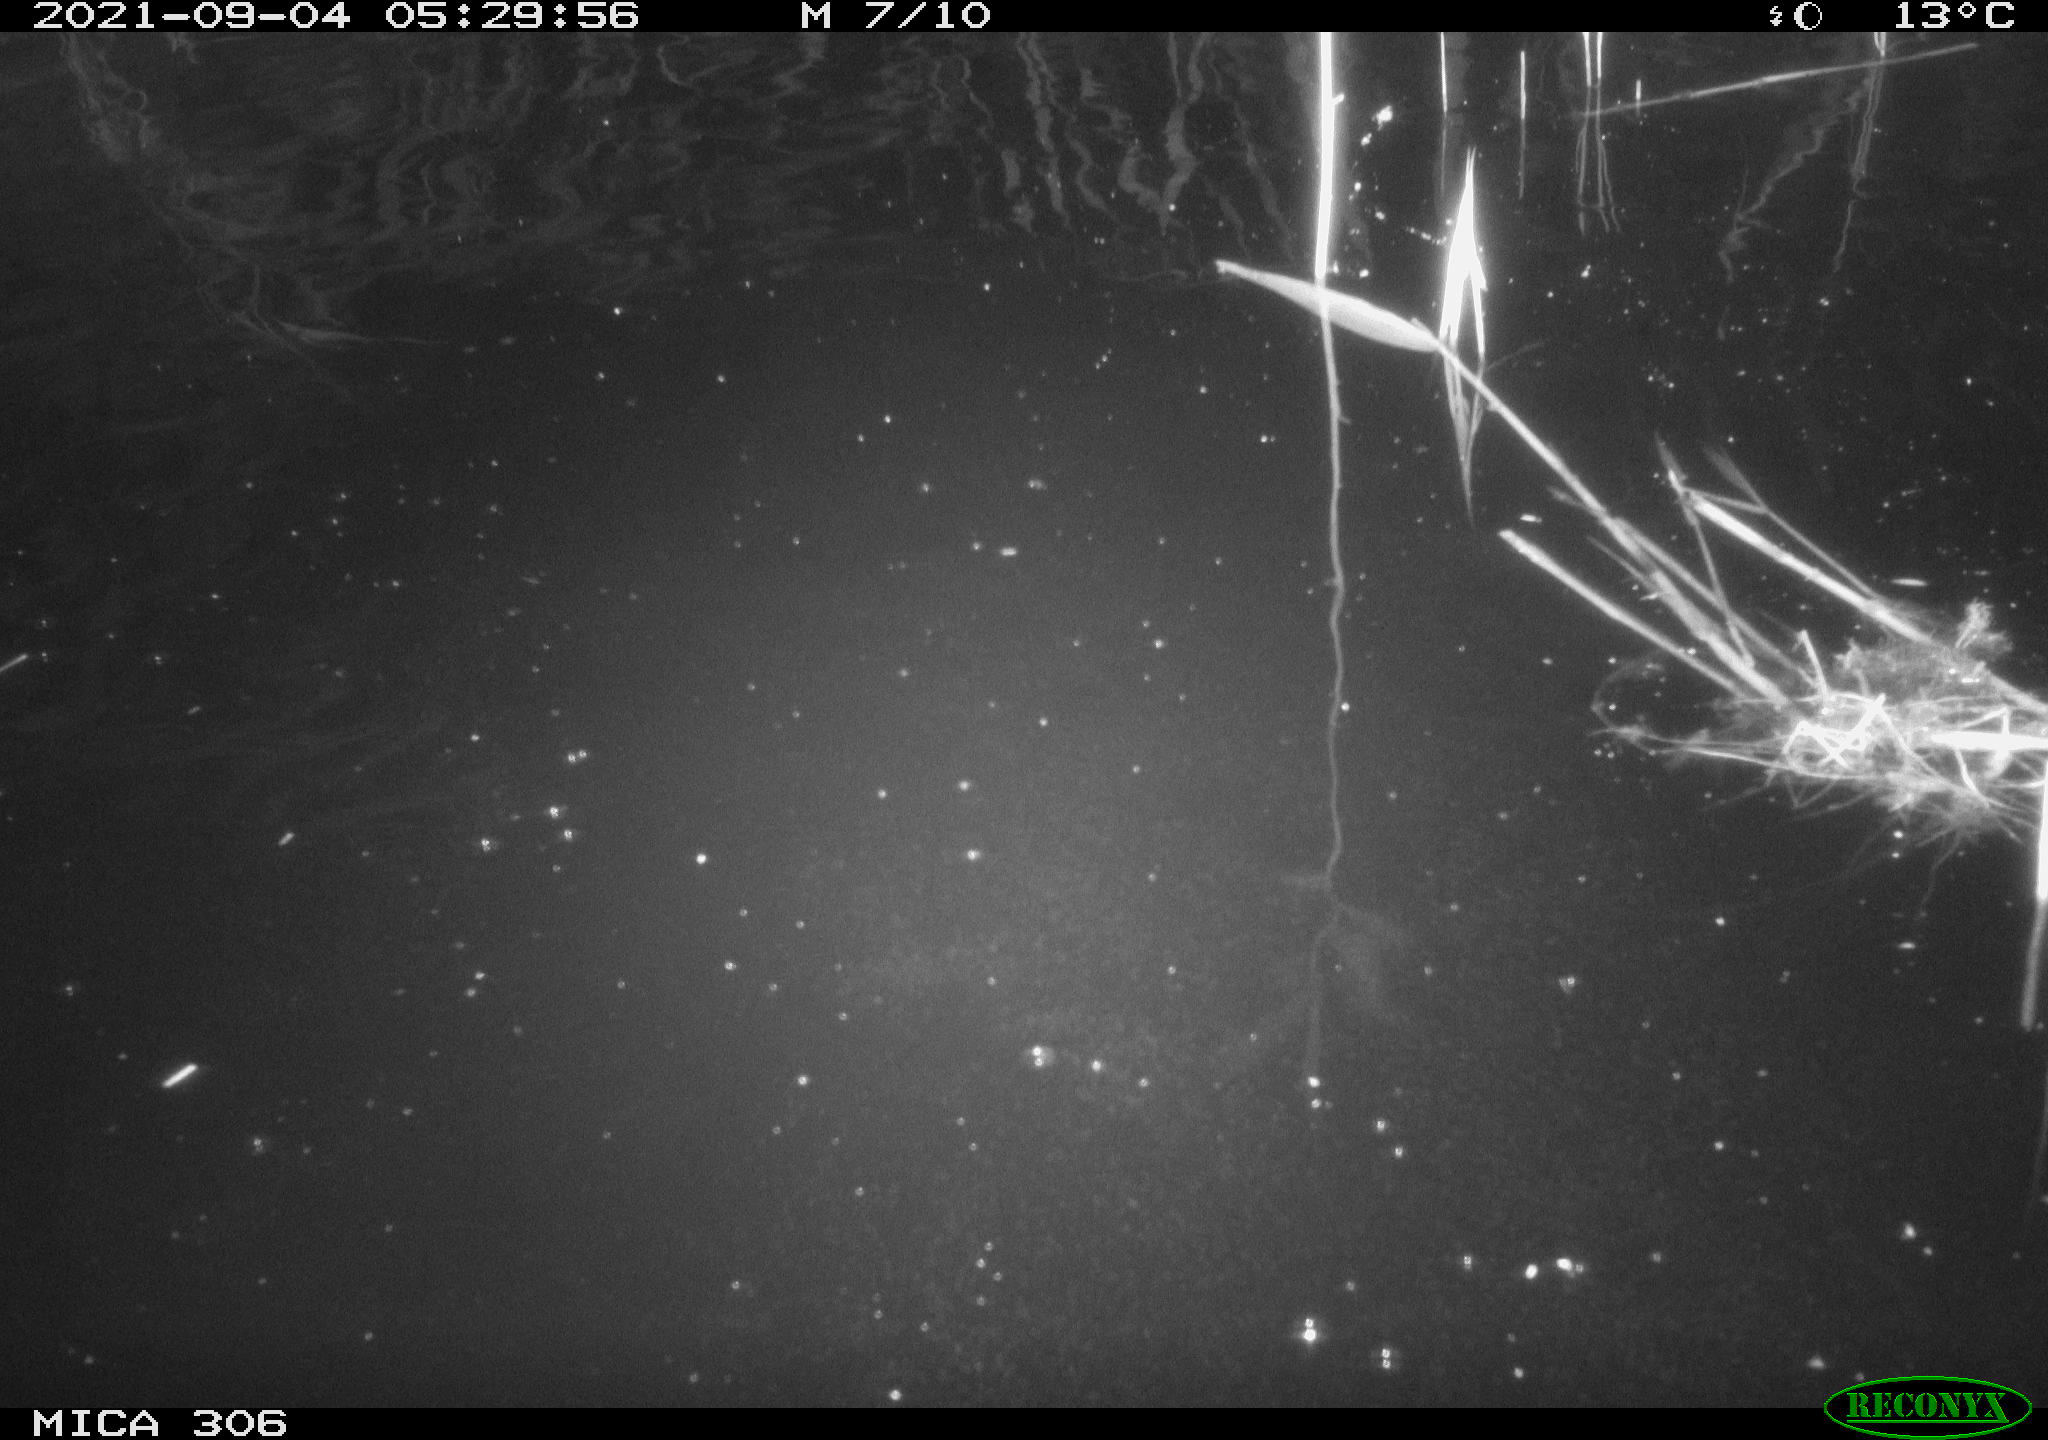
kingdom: Animalia
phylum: Chordata
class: Mammalia
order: Rodentia
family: Cricetidae
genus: Ondatra
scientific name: Ondatra zibethicus
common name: Muskrat
